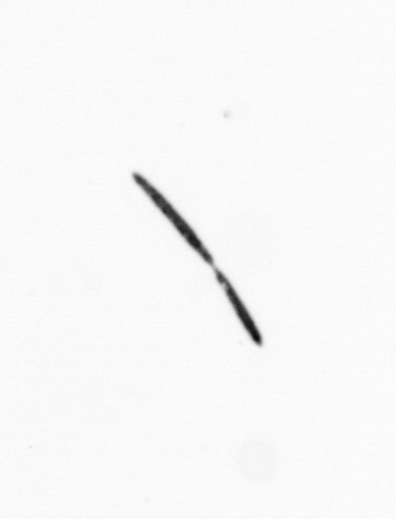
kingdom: Bacteria
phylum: Cyanobacteria
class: Cyanobacteriia
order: Cyanobacteriales
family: Microcoleaceae
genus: Trichodesmium
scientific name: Trichodesmium
